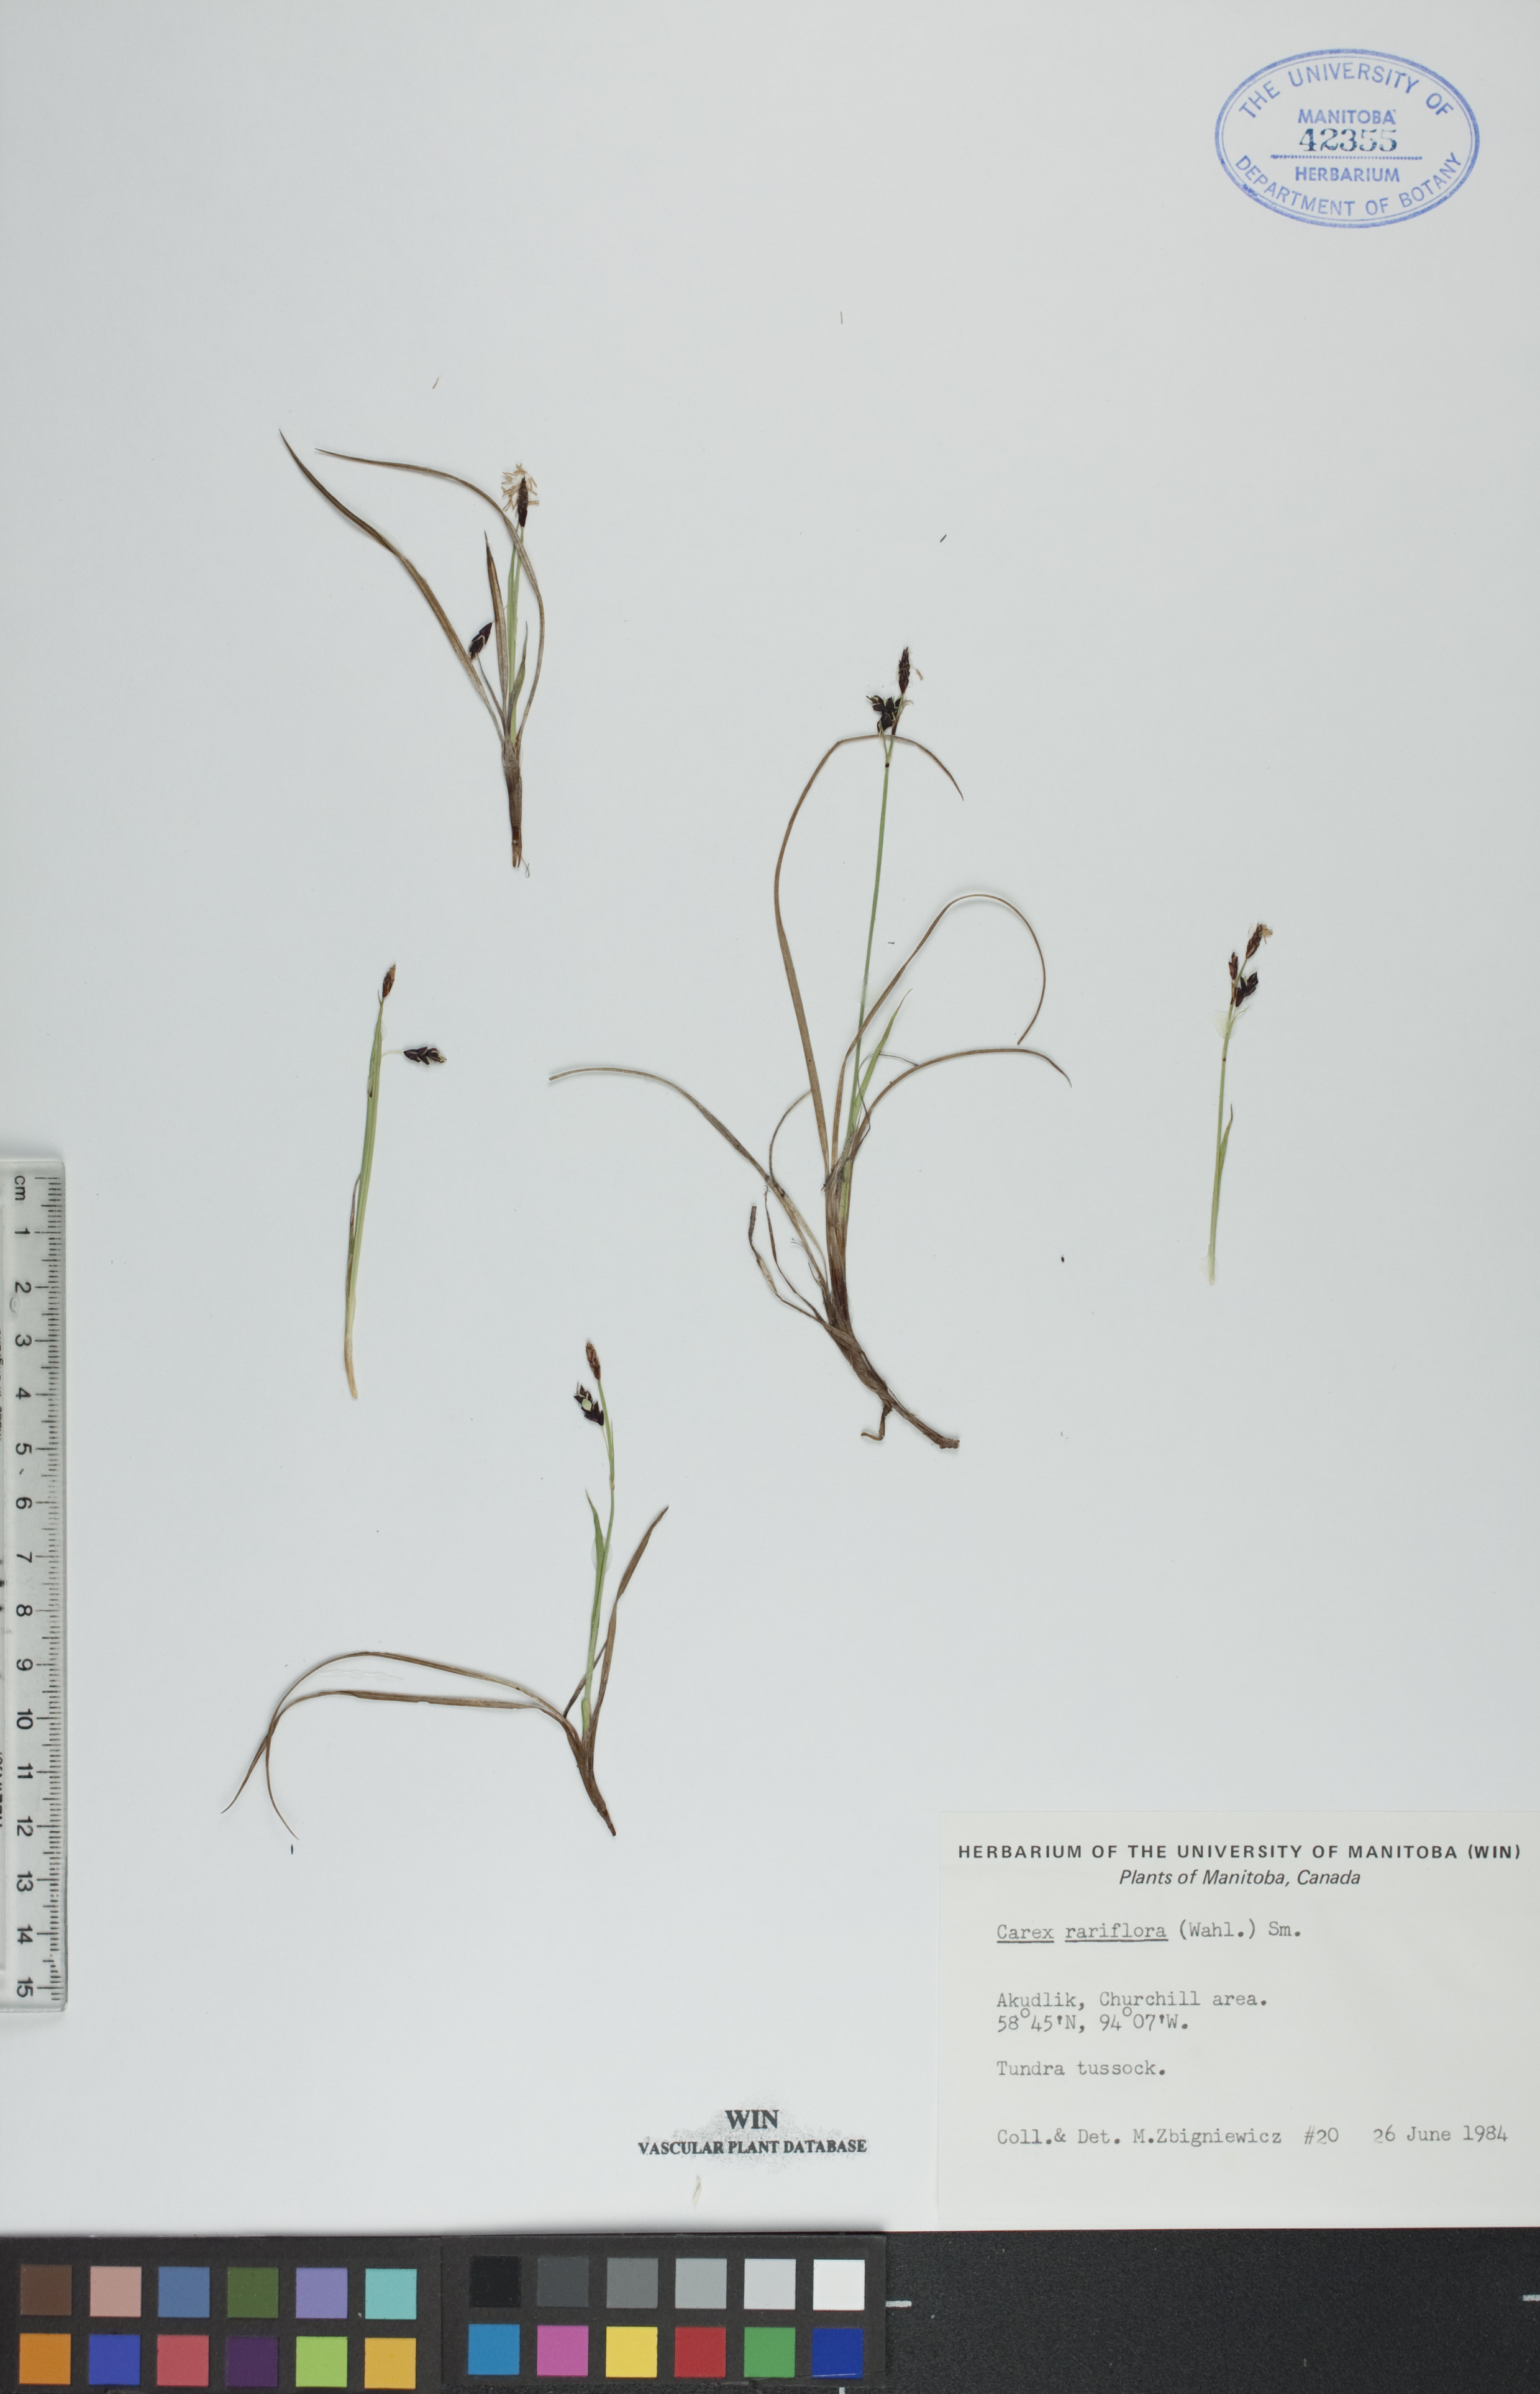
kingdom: Plantae
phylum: Tracheophyta
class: Liliopsida
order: Poales
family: Cyperaceae
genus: Carex
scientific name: Carex rariflora
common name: Loose-flowered alpine sedge
